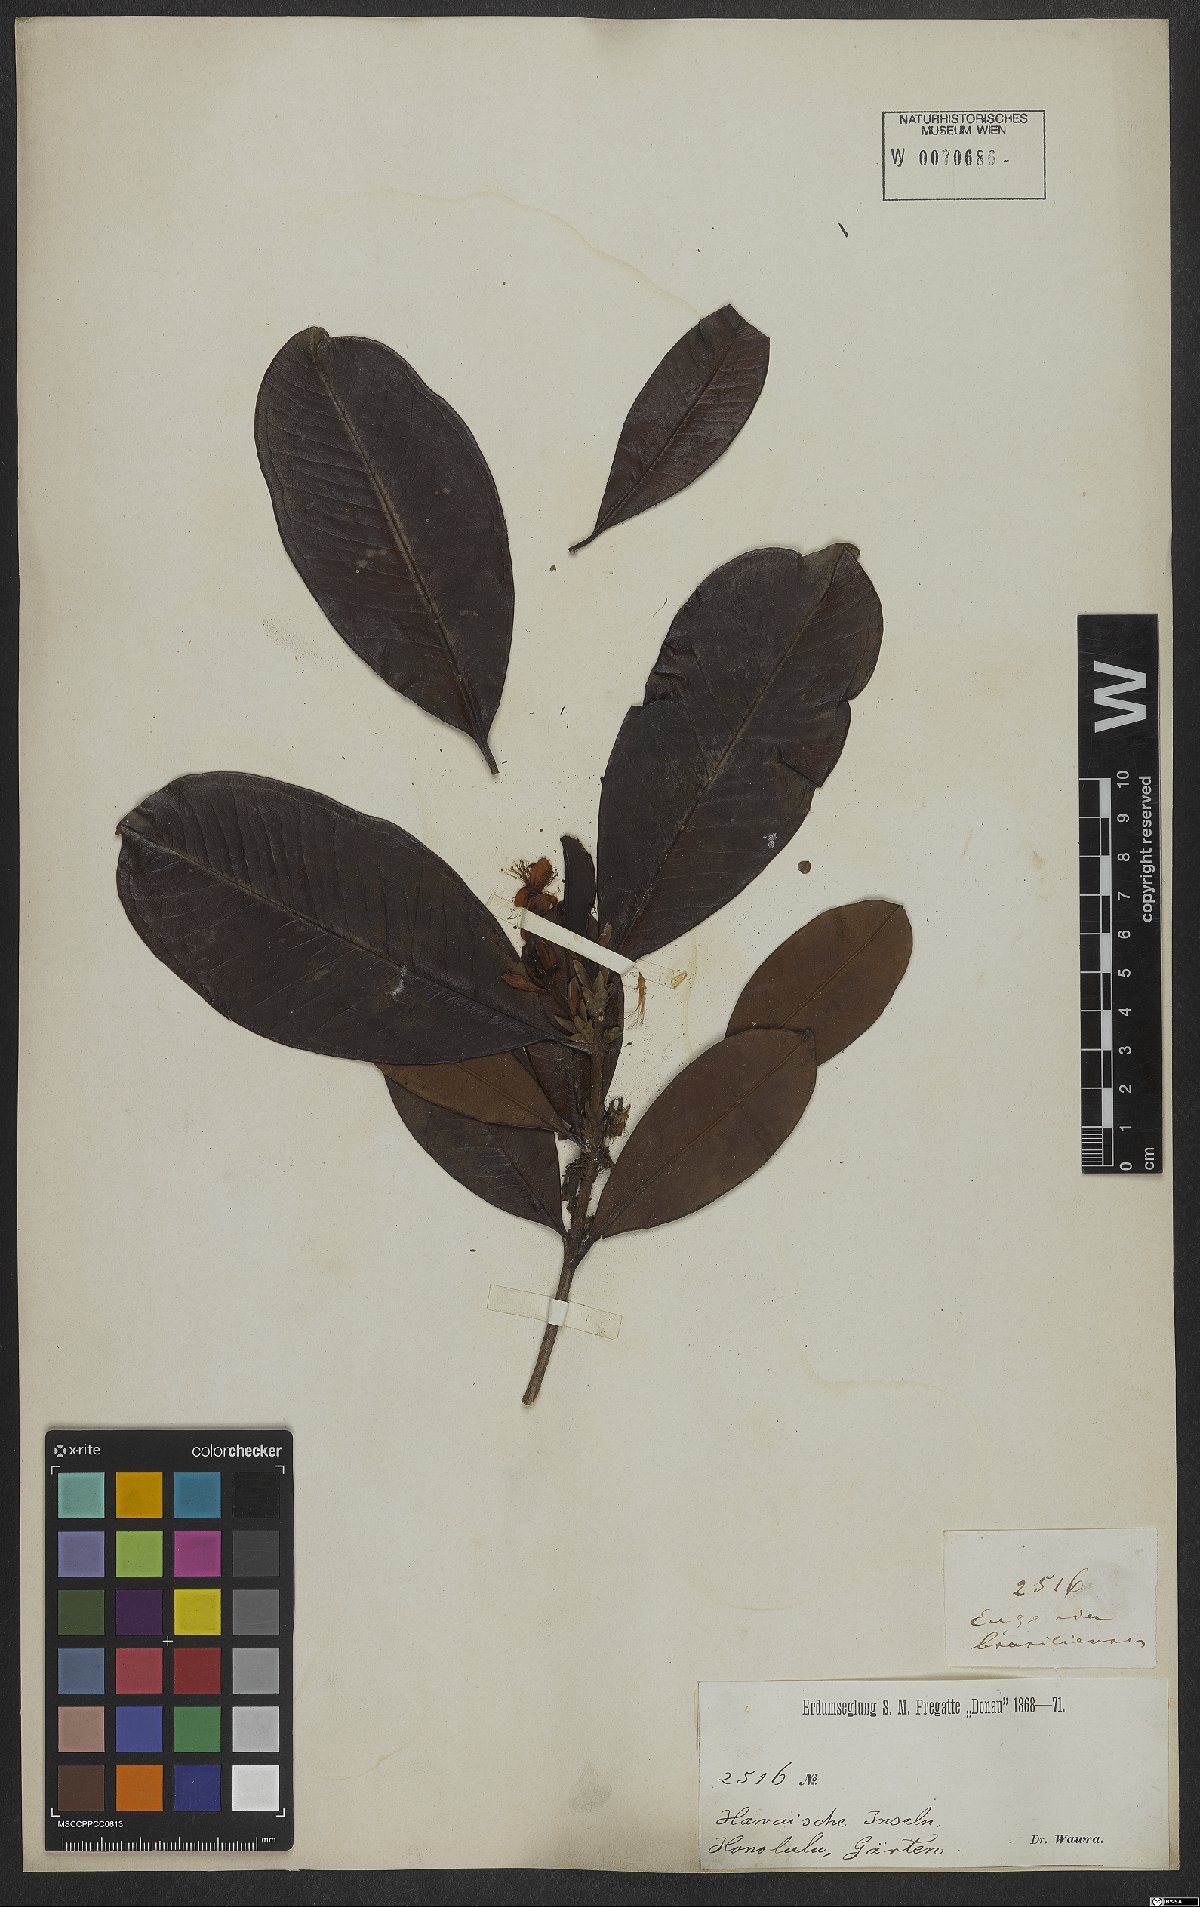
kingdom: Plantae
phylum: Tracheophyta
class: Magnoliopsida
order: Myrtales
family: Myrtaceae
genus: Eugenia
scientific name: Eugenia brasiliensis
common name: Grumichama
